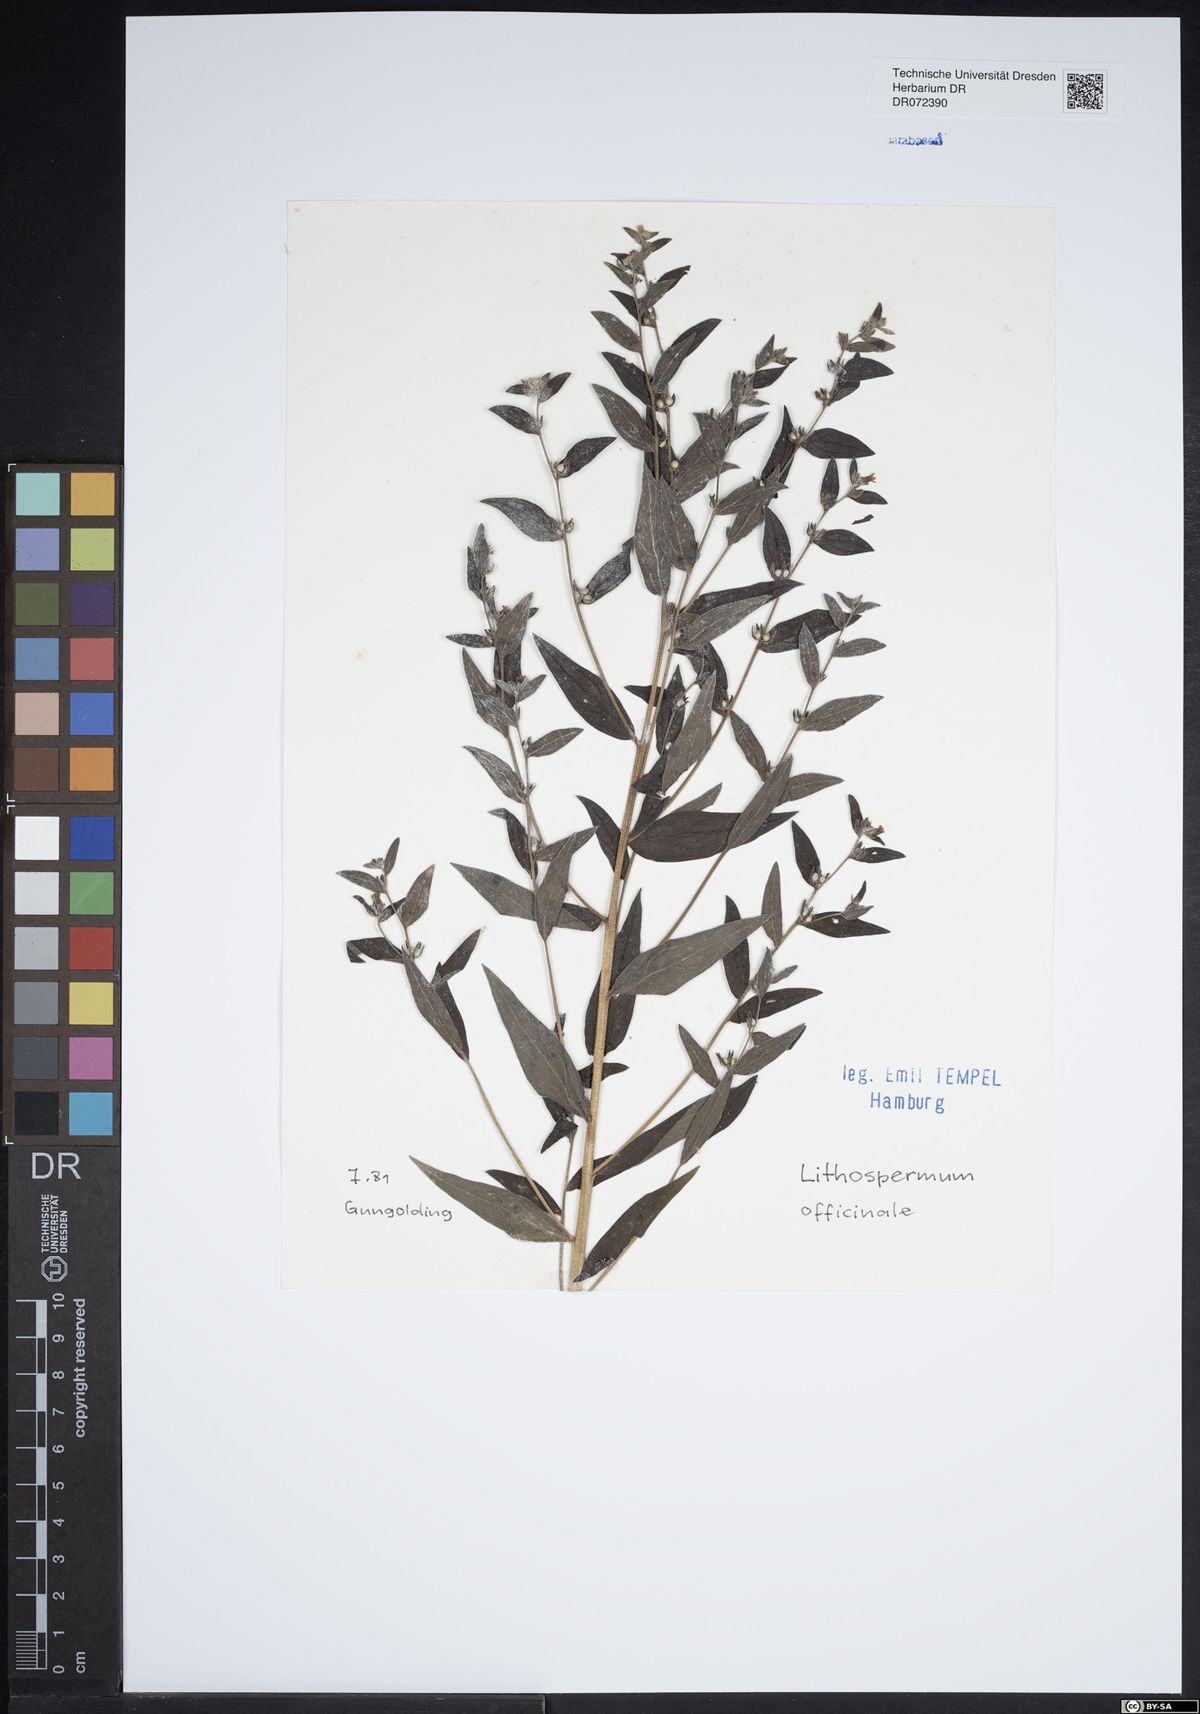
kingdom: Plantae
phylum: Tracheophyta
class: Magnoliopsida
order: Boraginales
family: Boraginaceae
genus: Lithospermum
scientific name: Lithospermum officinale
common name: Common gromwell
